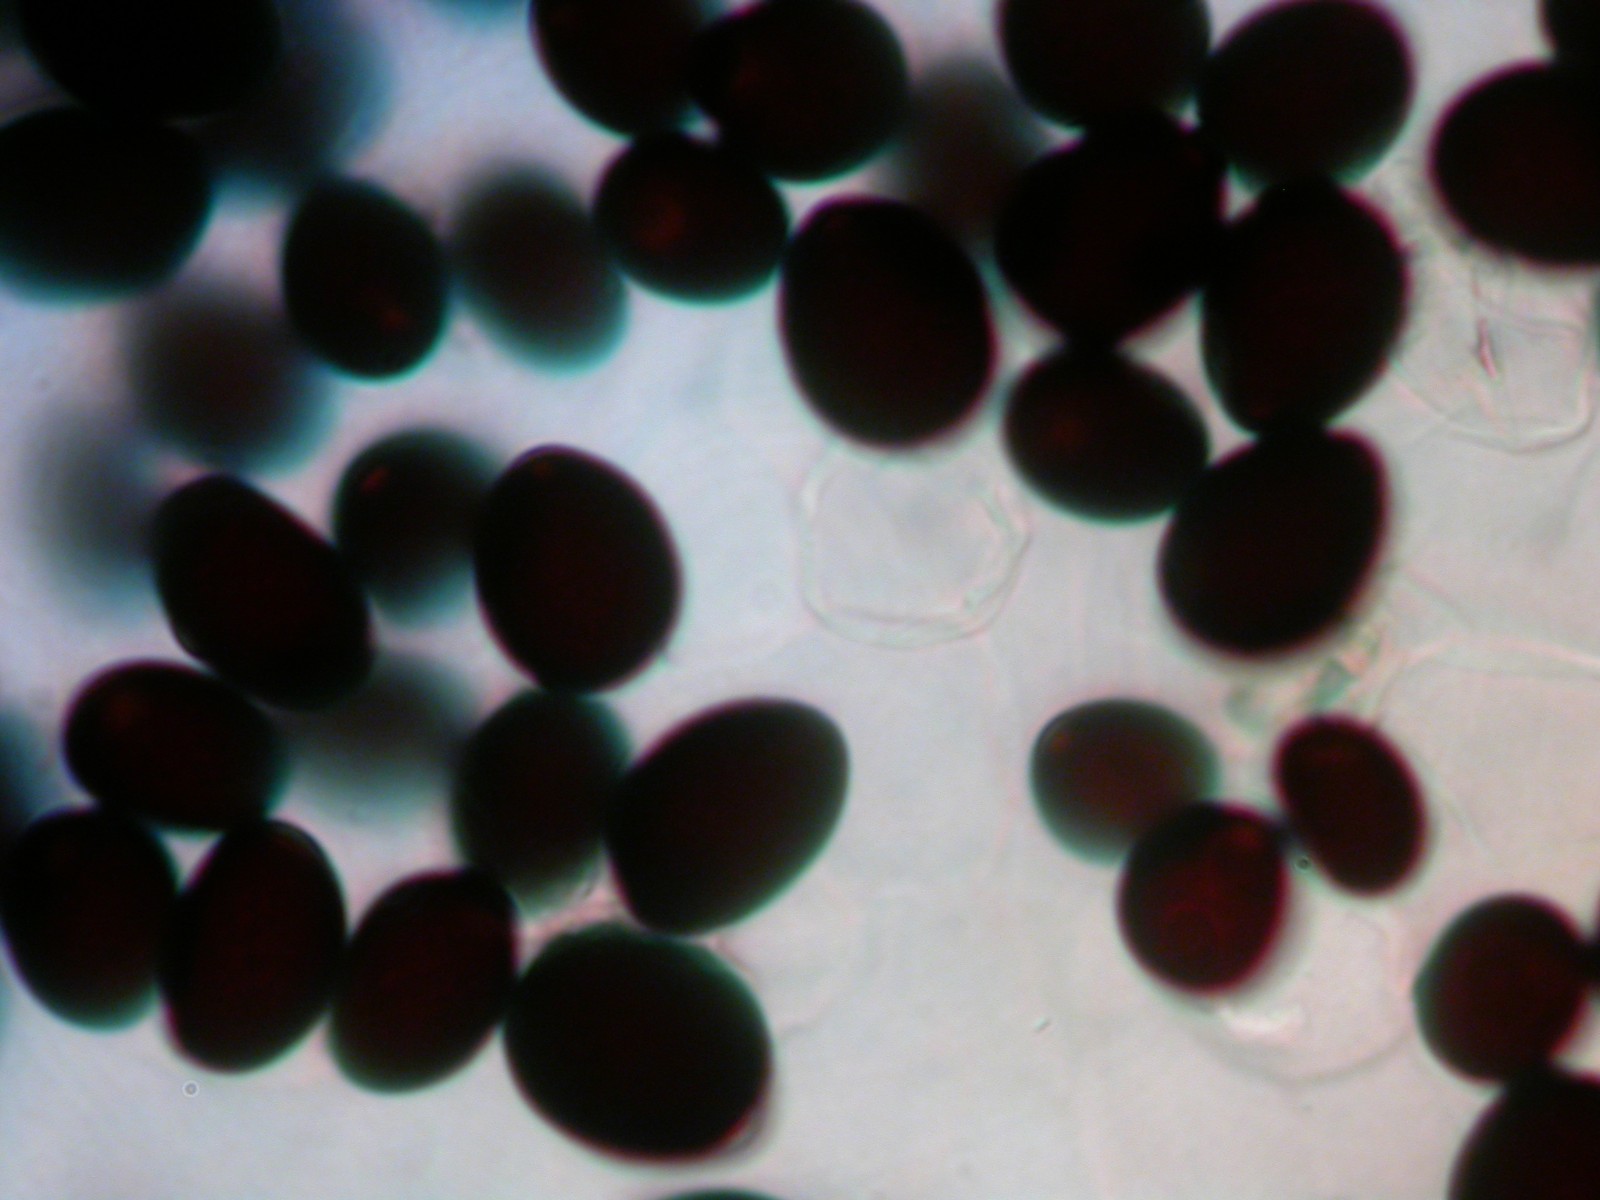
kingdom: Fungi
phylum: Basidiomycota
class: Agaricomycetes
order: Agaricales
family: Psathyrellaceae
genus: Parasola
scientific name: Parasola schroeteri
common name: bredsporet hjulhat
